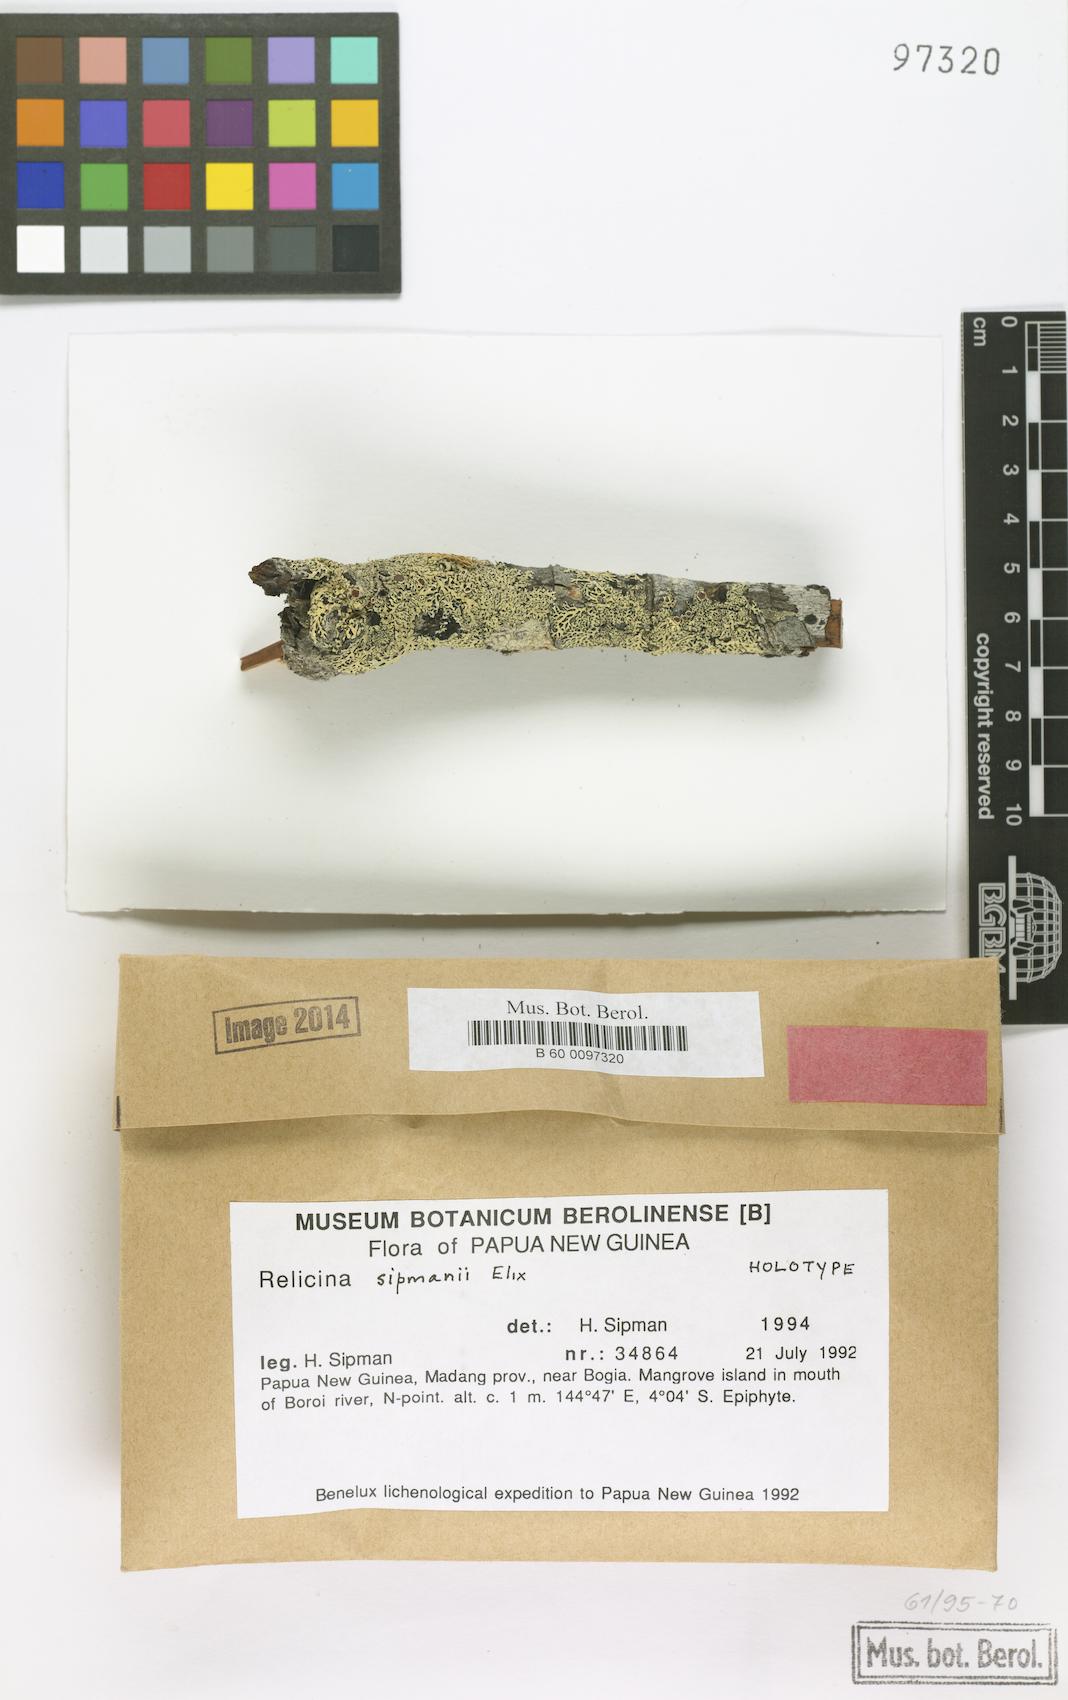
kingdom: Fungi
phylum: Ascomycota
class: Lecanoromycetes
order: Lecanorales
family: Parmeliaceae
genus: Relicina
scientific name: Relicina
